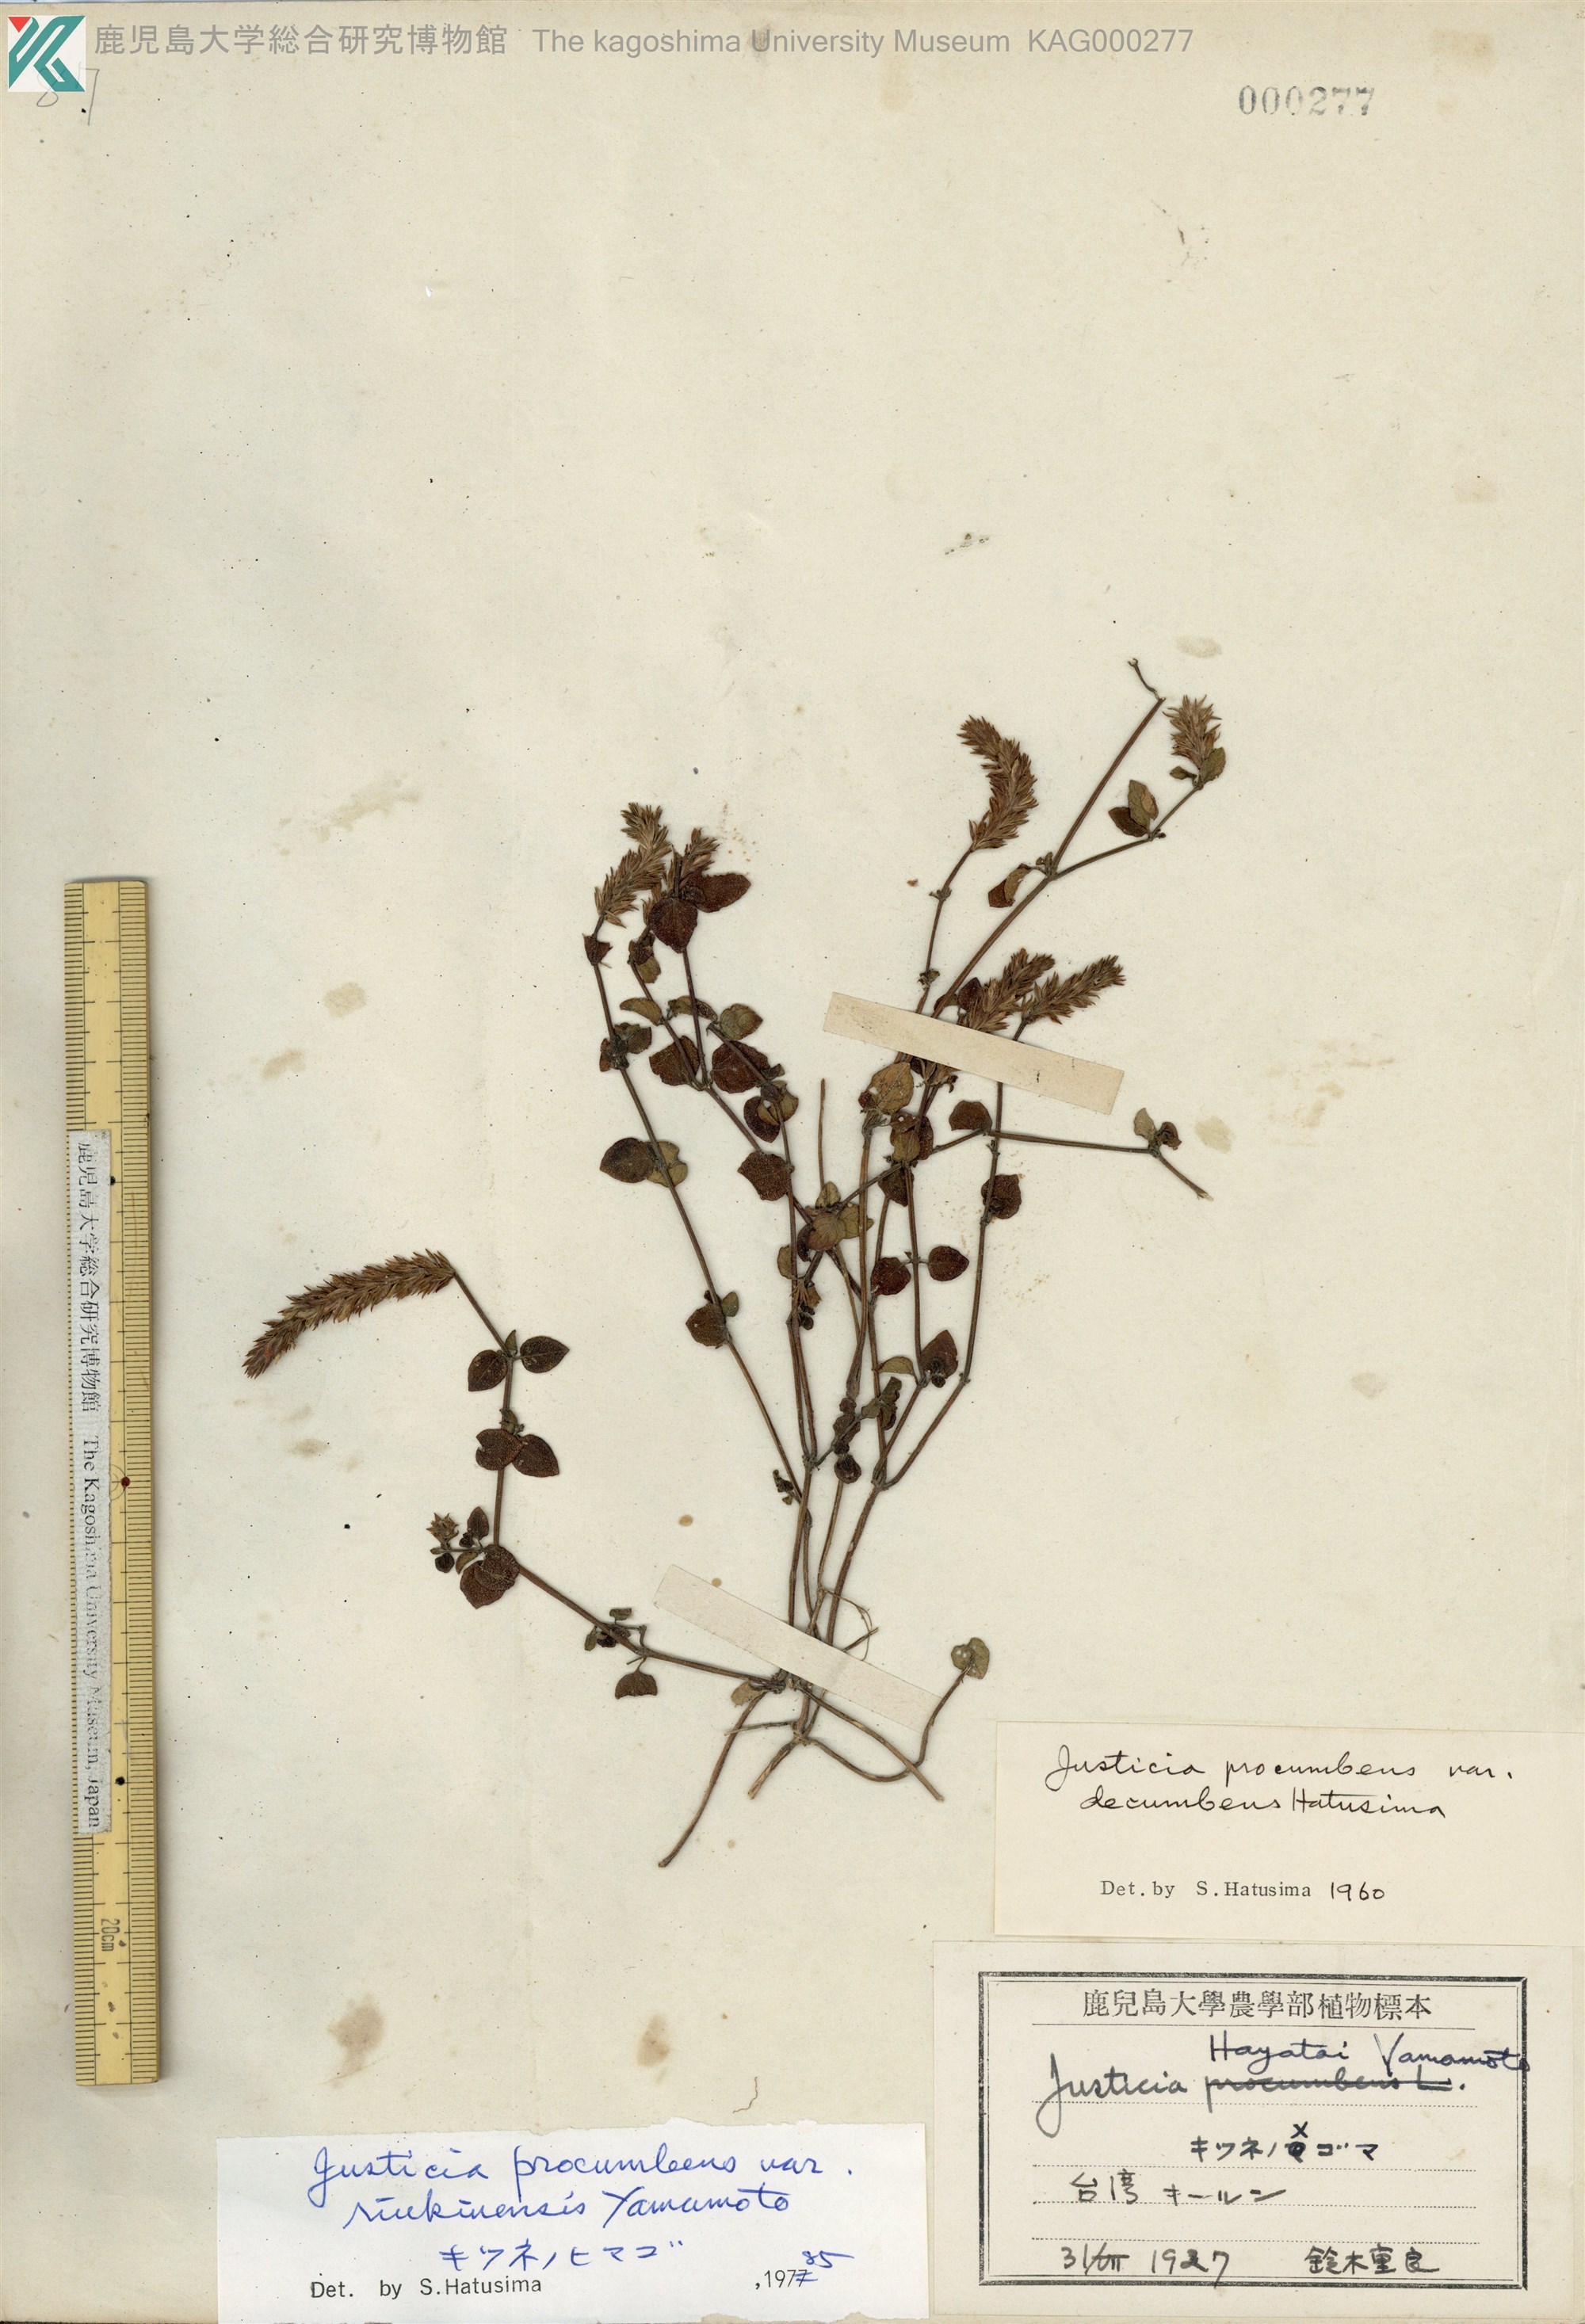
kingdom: Plantae
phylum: Tracheophyta
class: Magnoliopsida
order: Lamiales
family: Acanthaceae
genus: Rostellularia
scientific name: Rostellularia procumbens
